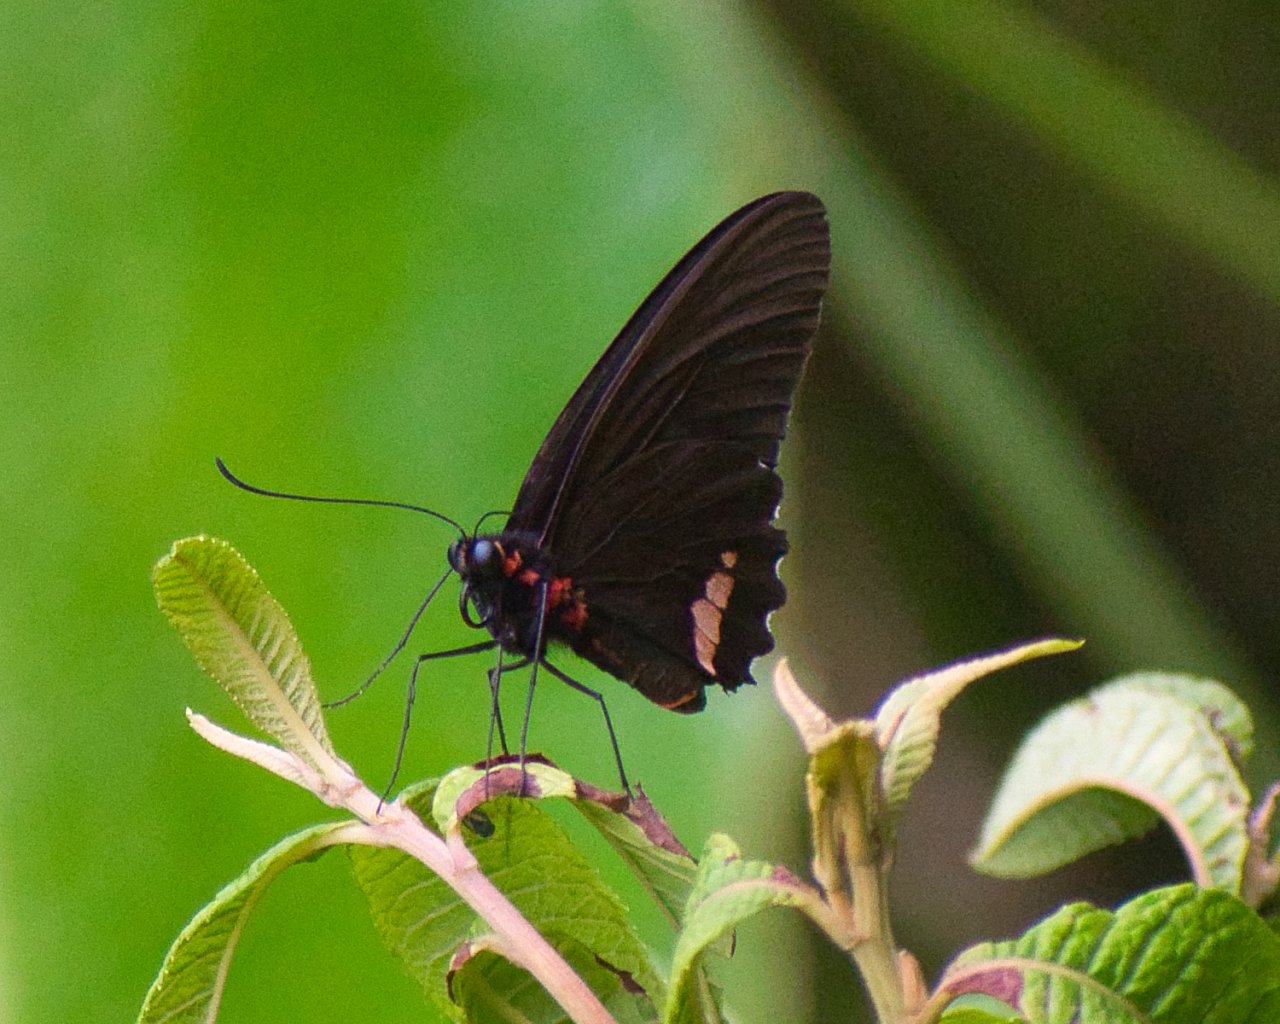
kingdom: Animalia
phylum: Arthropoda
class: Insecta
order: Lepidoptera
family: Papilionidae
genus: Parides
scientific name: Parides sesostris
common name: Emerald-patched Cattleheart
